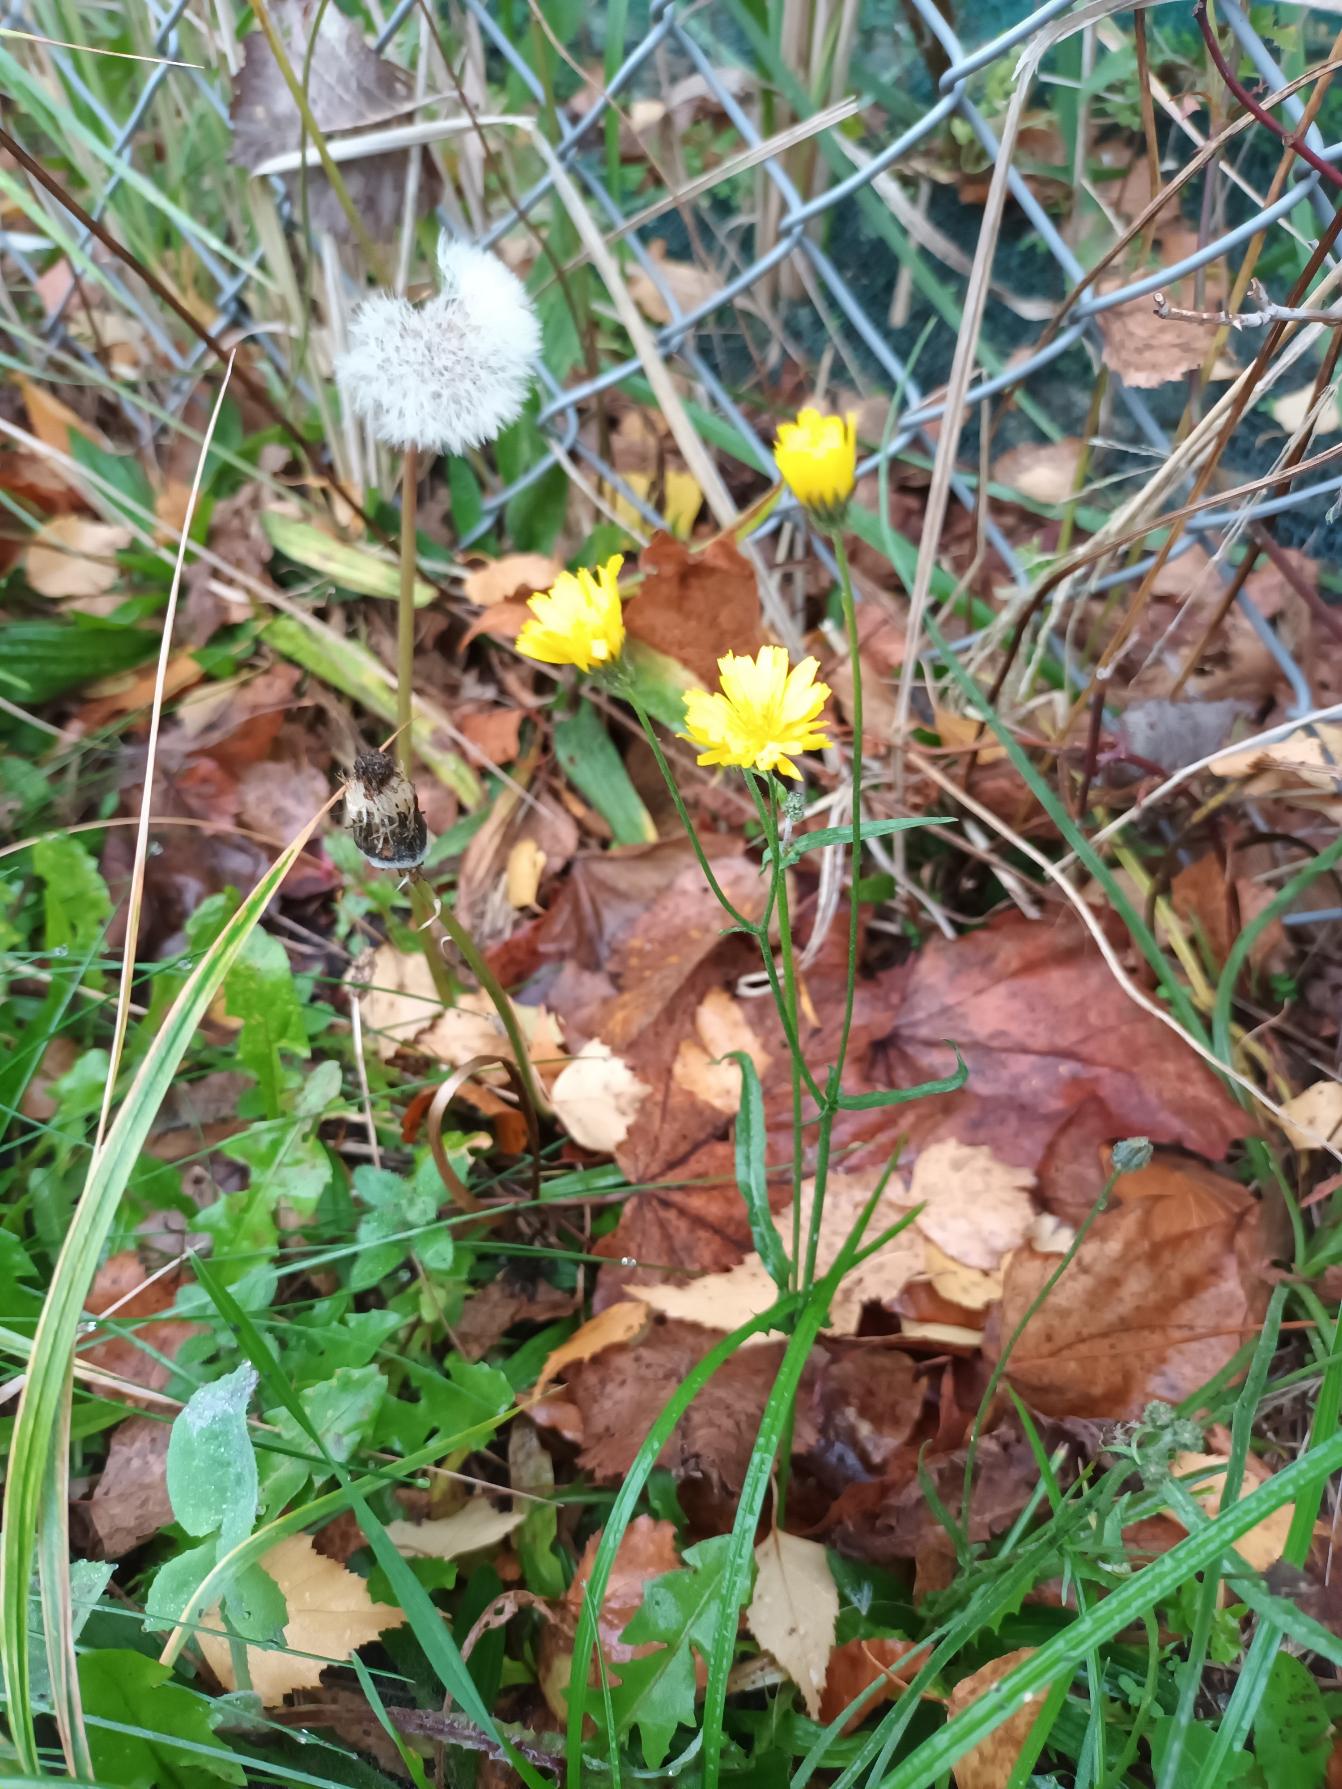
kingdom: Plantae
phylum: Tracheophyta
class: Magnoliopsida
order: Asterales
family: Asteraceae
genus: Crepis
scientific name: Crepis capillaris
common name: Grøn høgeskæg
